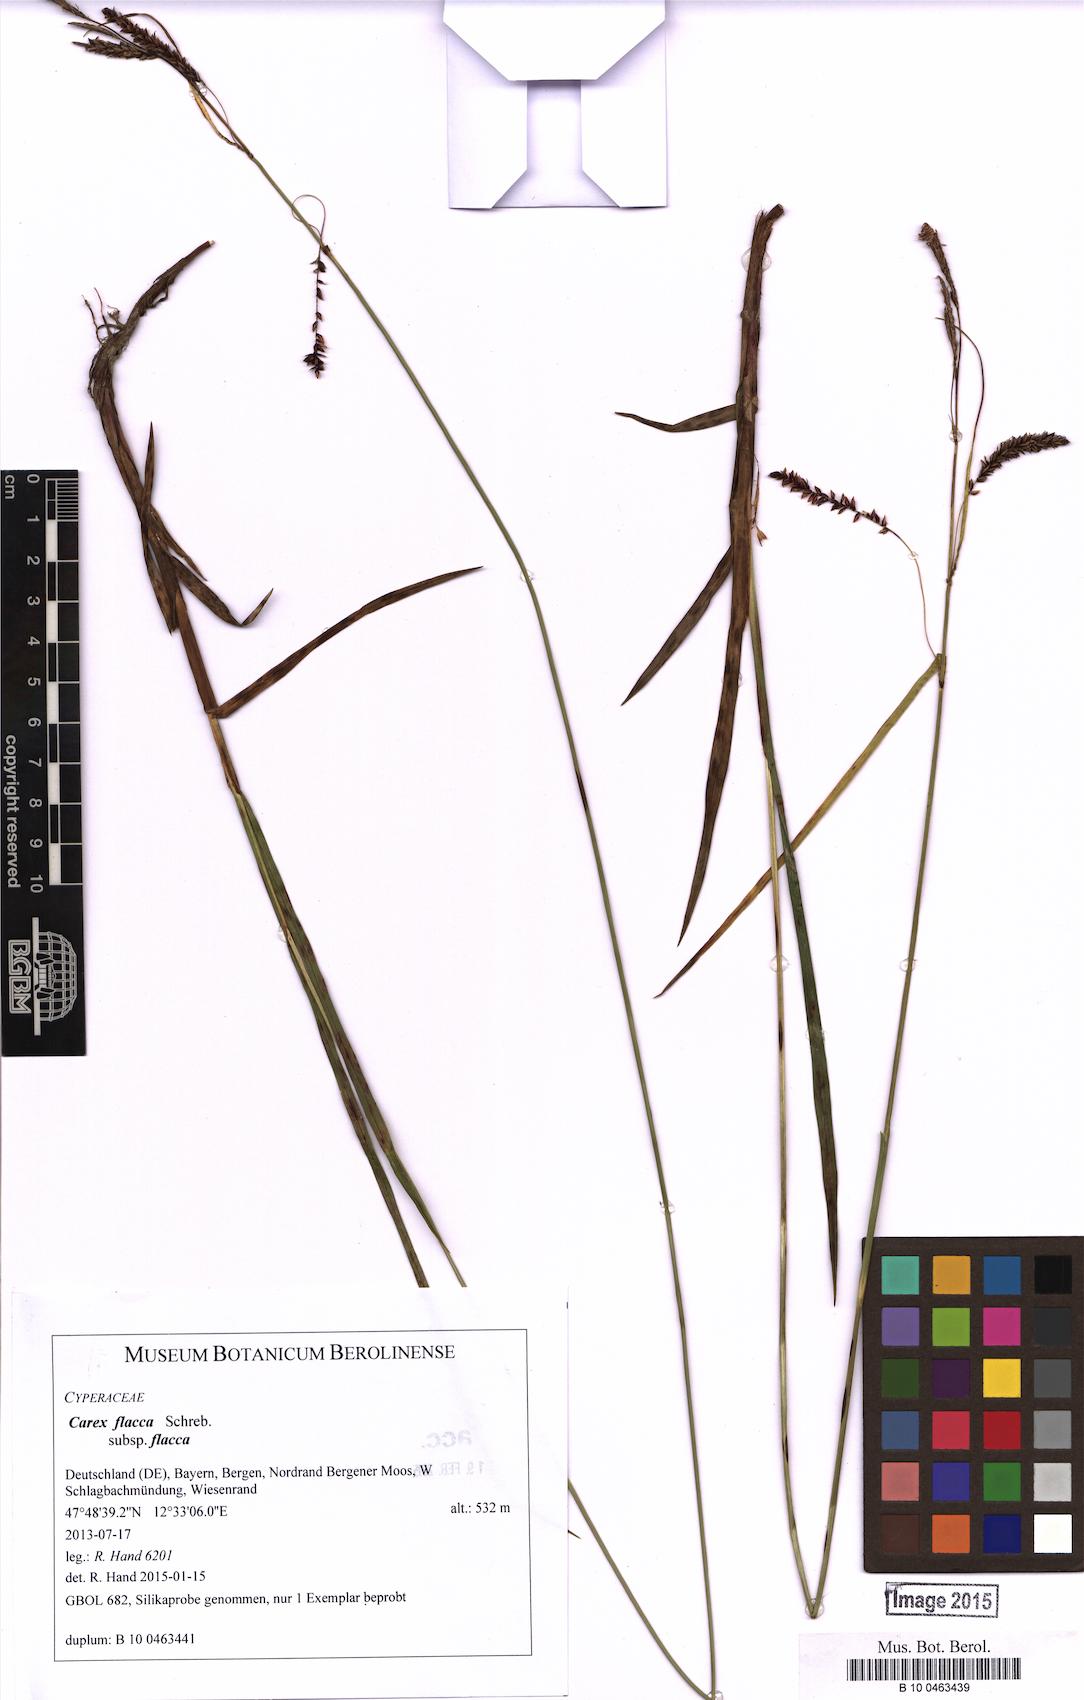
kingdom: Plantae
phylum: Tracheophyta
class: Liliopsida
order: Poales
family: Cyperaceae
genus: Carex
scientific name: Carex flacca
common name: Glaucous sedge
